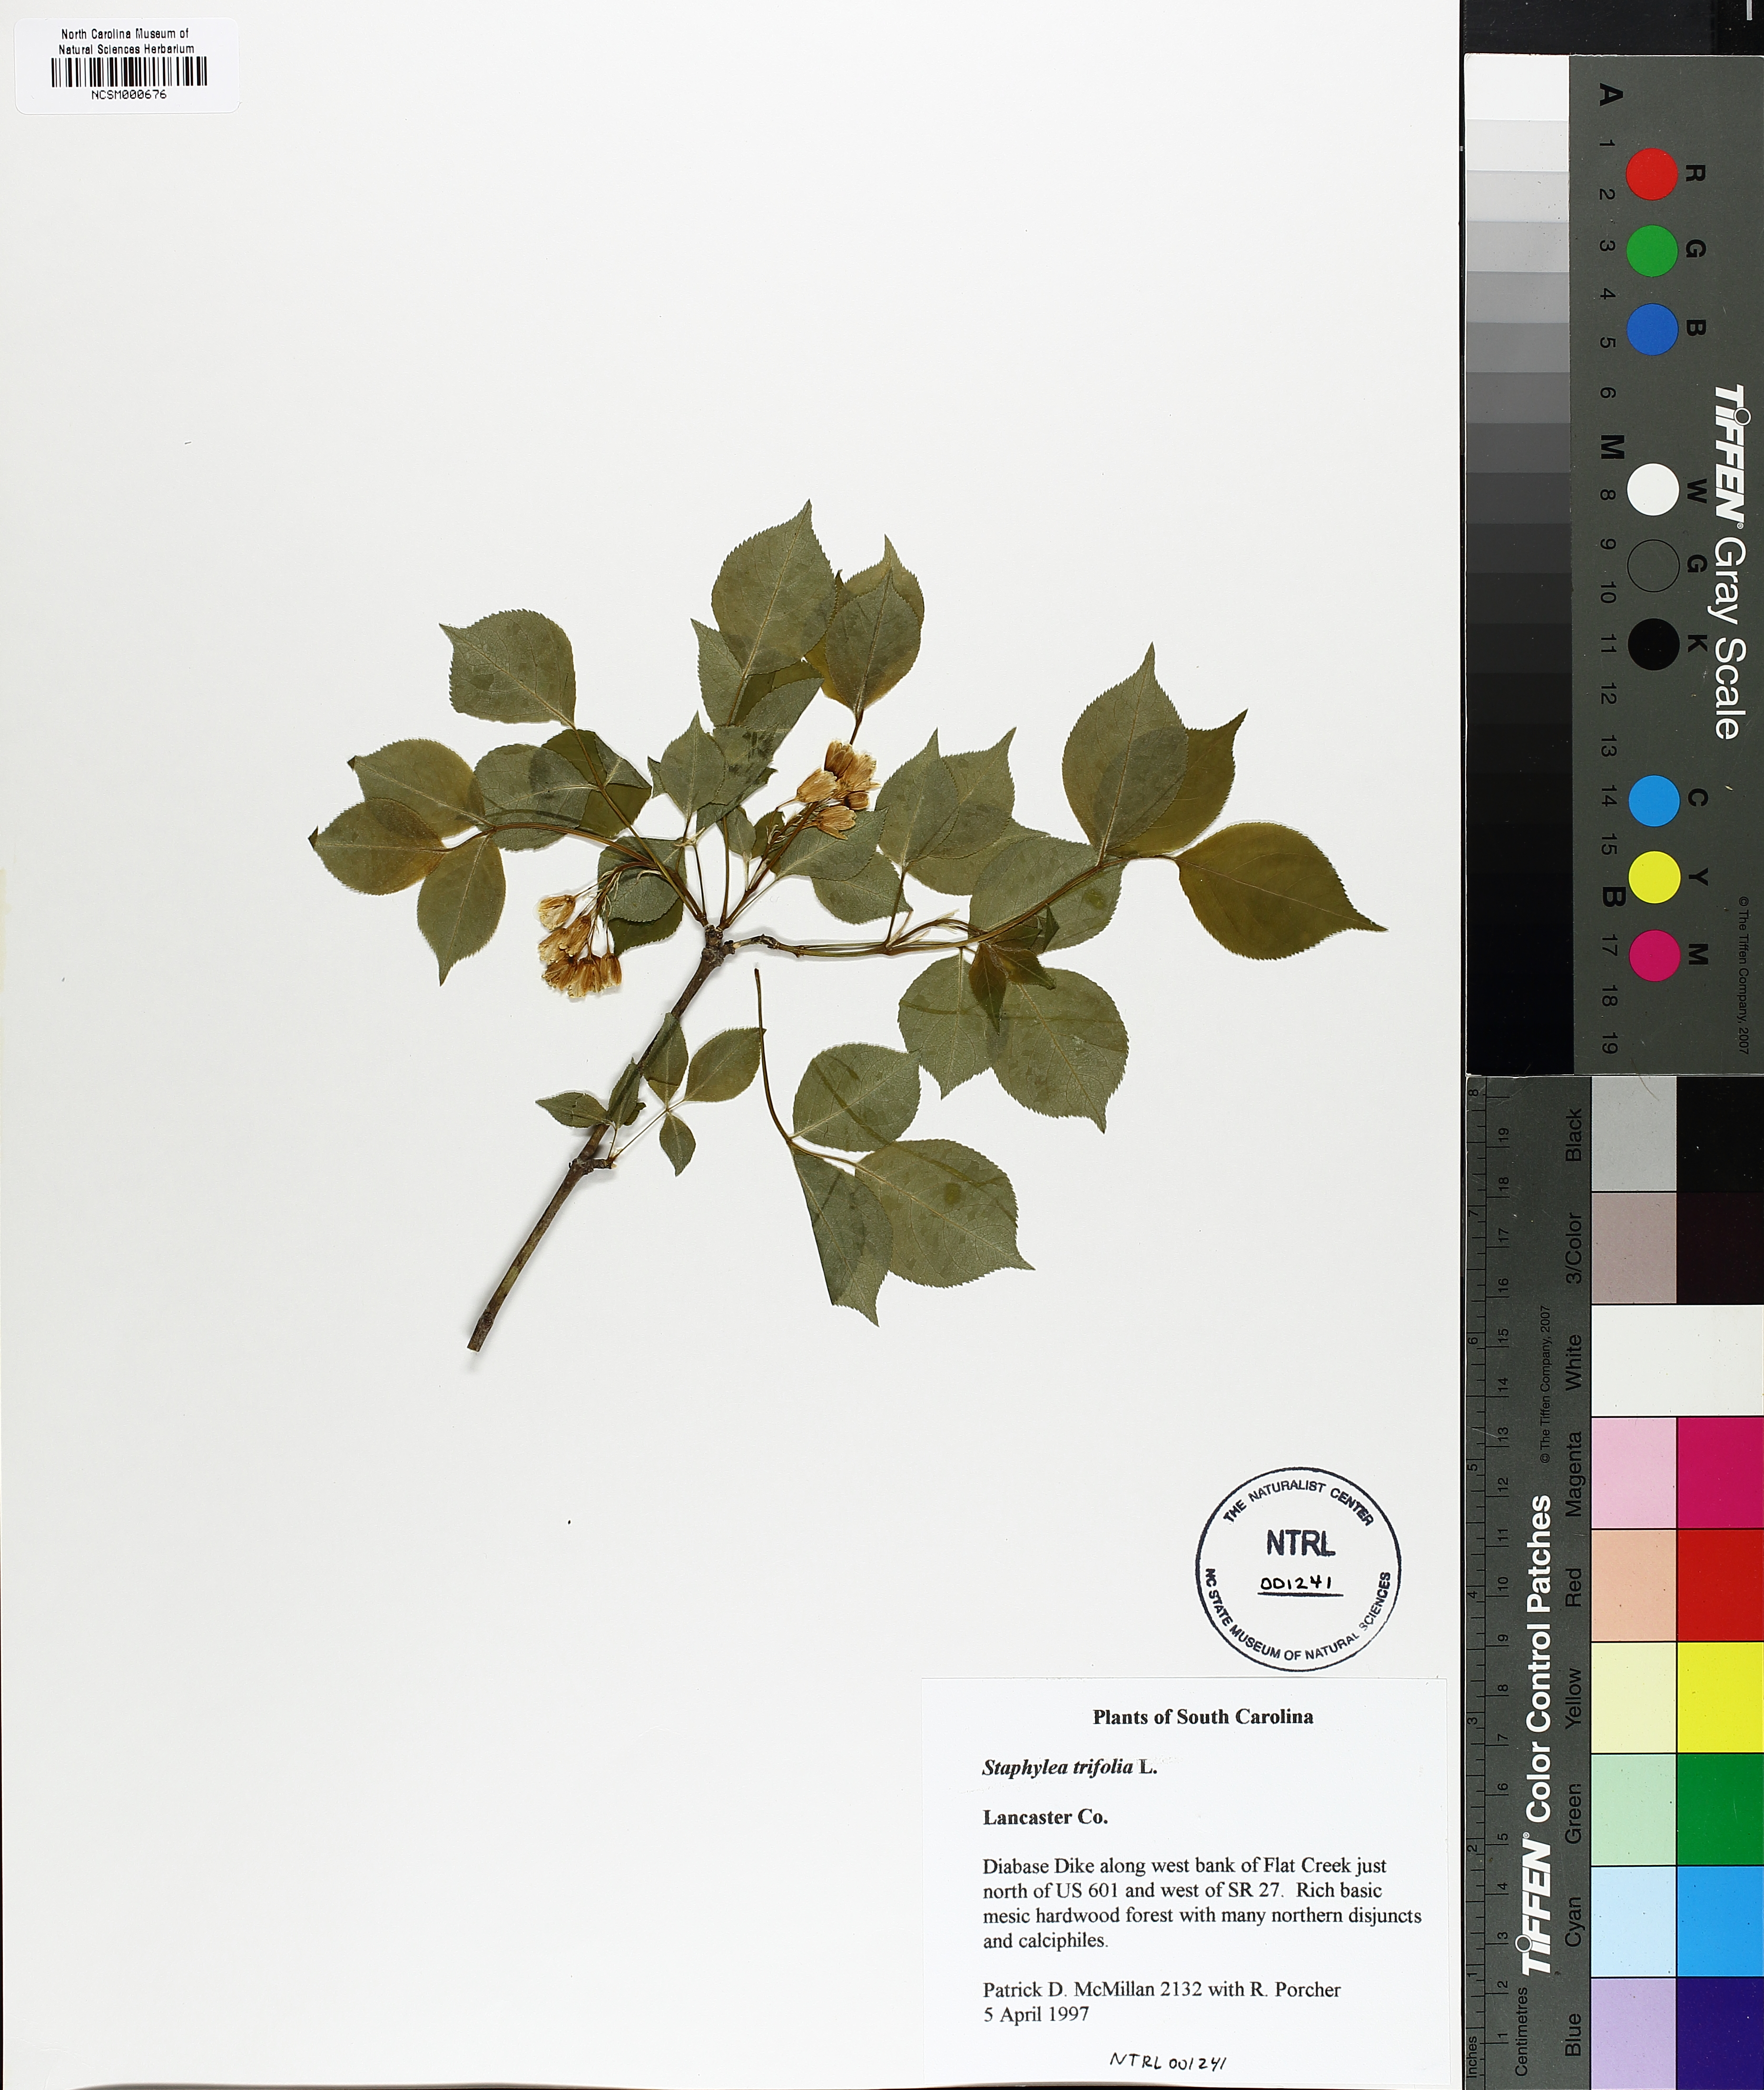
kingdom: Plantae
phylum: Tracheophyta
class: Magnoliopsida
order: Crossosomatales
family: Staphyleaceae
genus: Staphylea
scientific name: Staphylea trifolia
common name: American bladdernut
